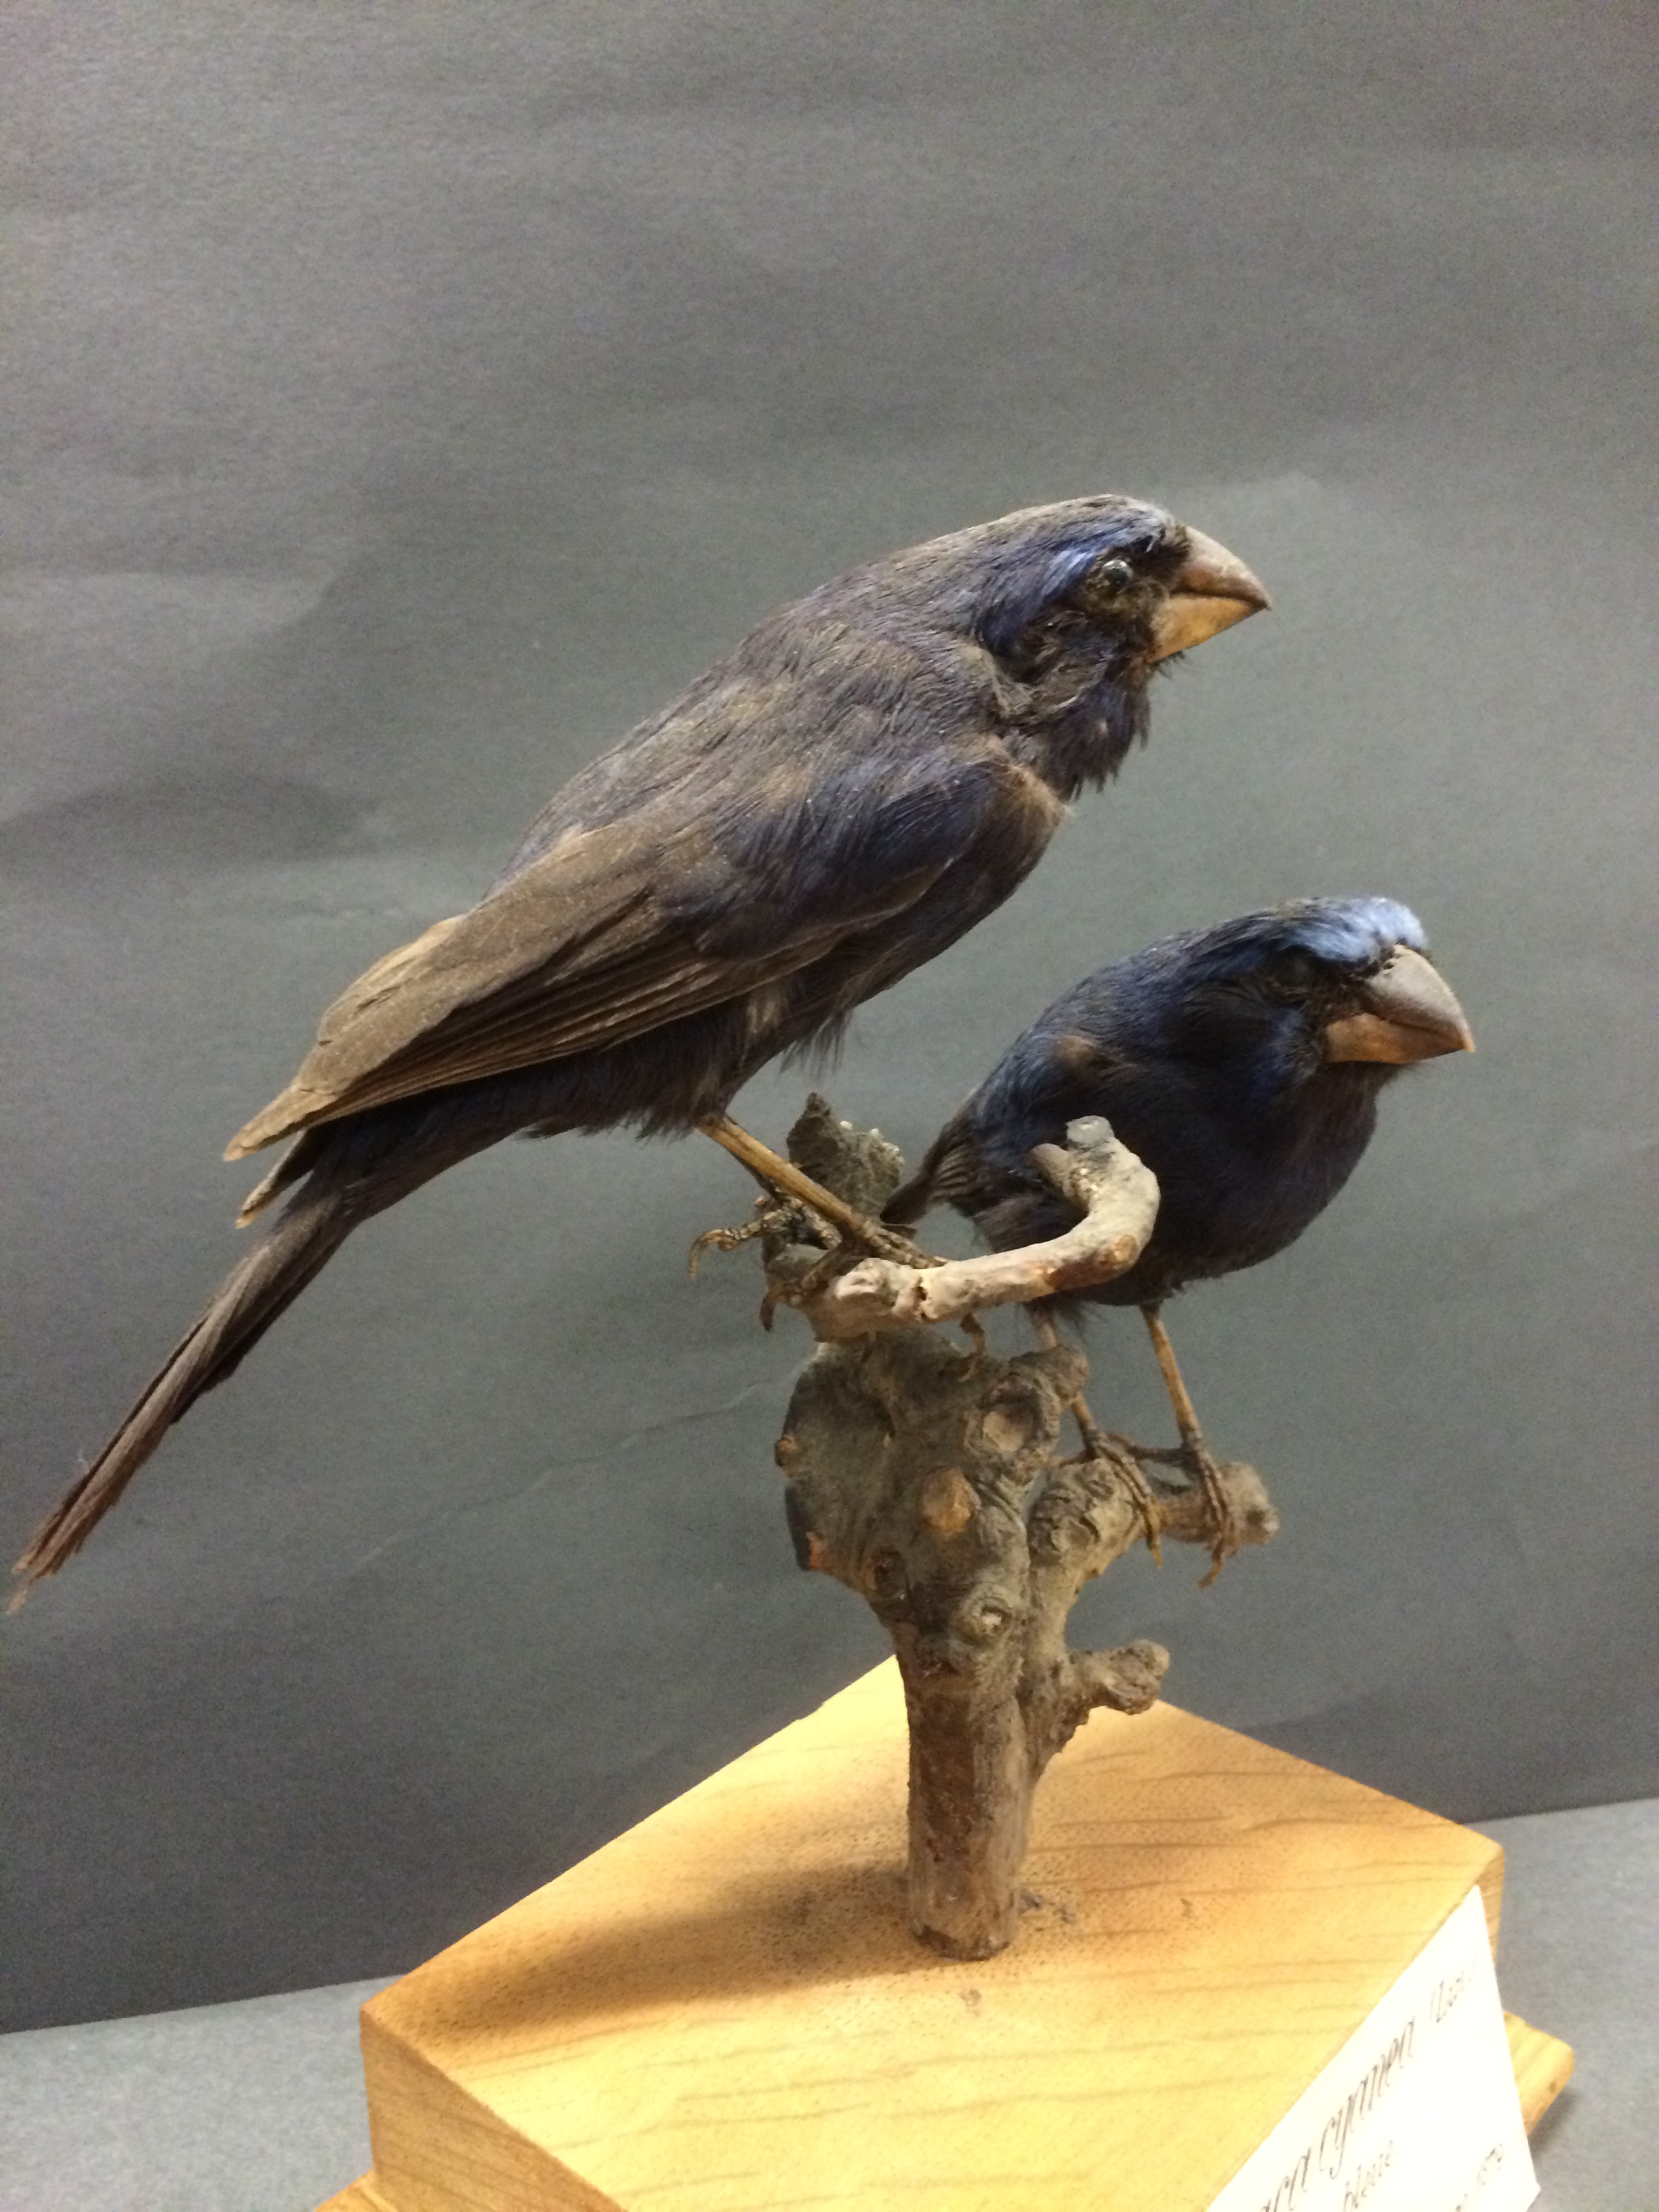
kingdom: Animalia
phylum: Chordata
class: Aves
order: Passeriformes
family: Cardinalidae
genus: Cyanocompsa
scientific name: Cyanocompsa cyanoides
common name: Blue-black grosbeak
